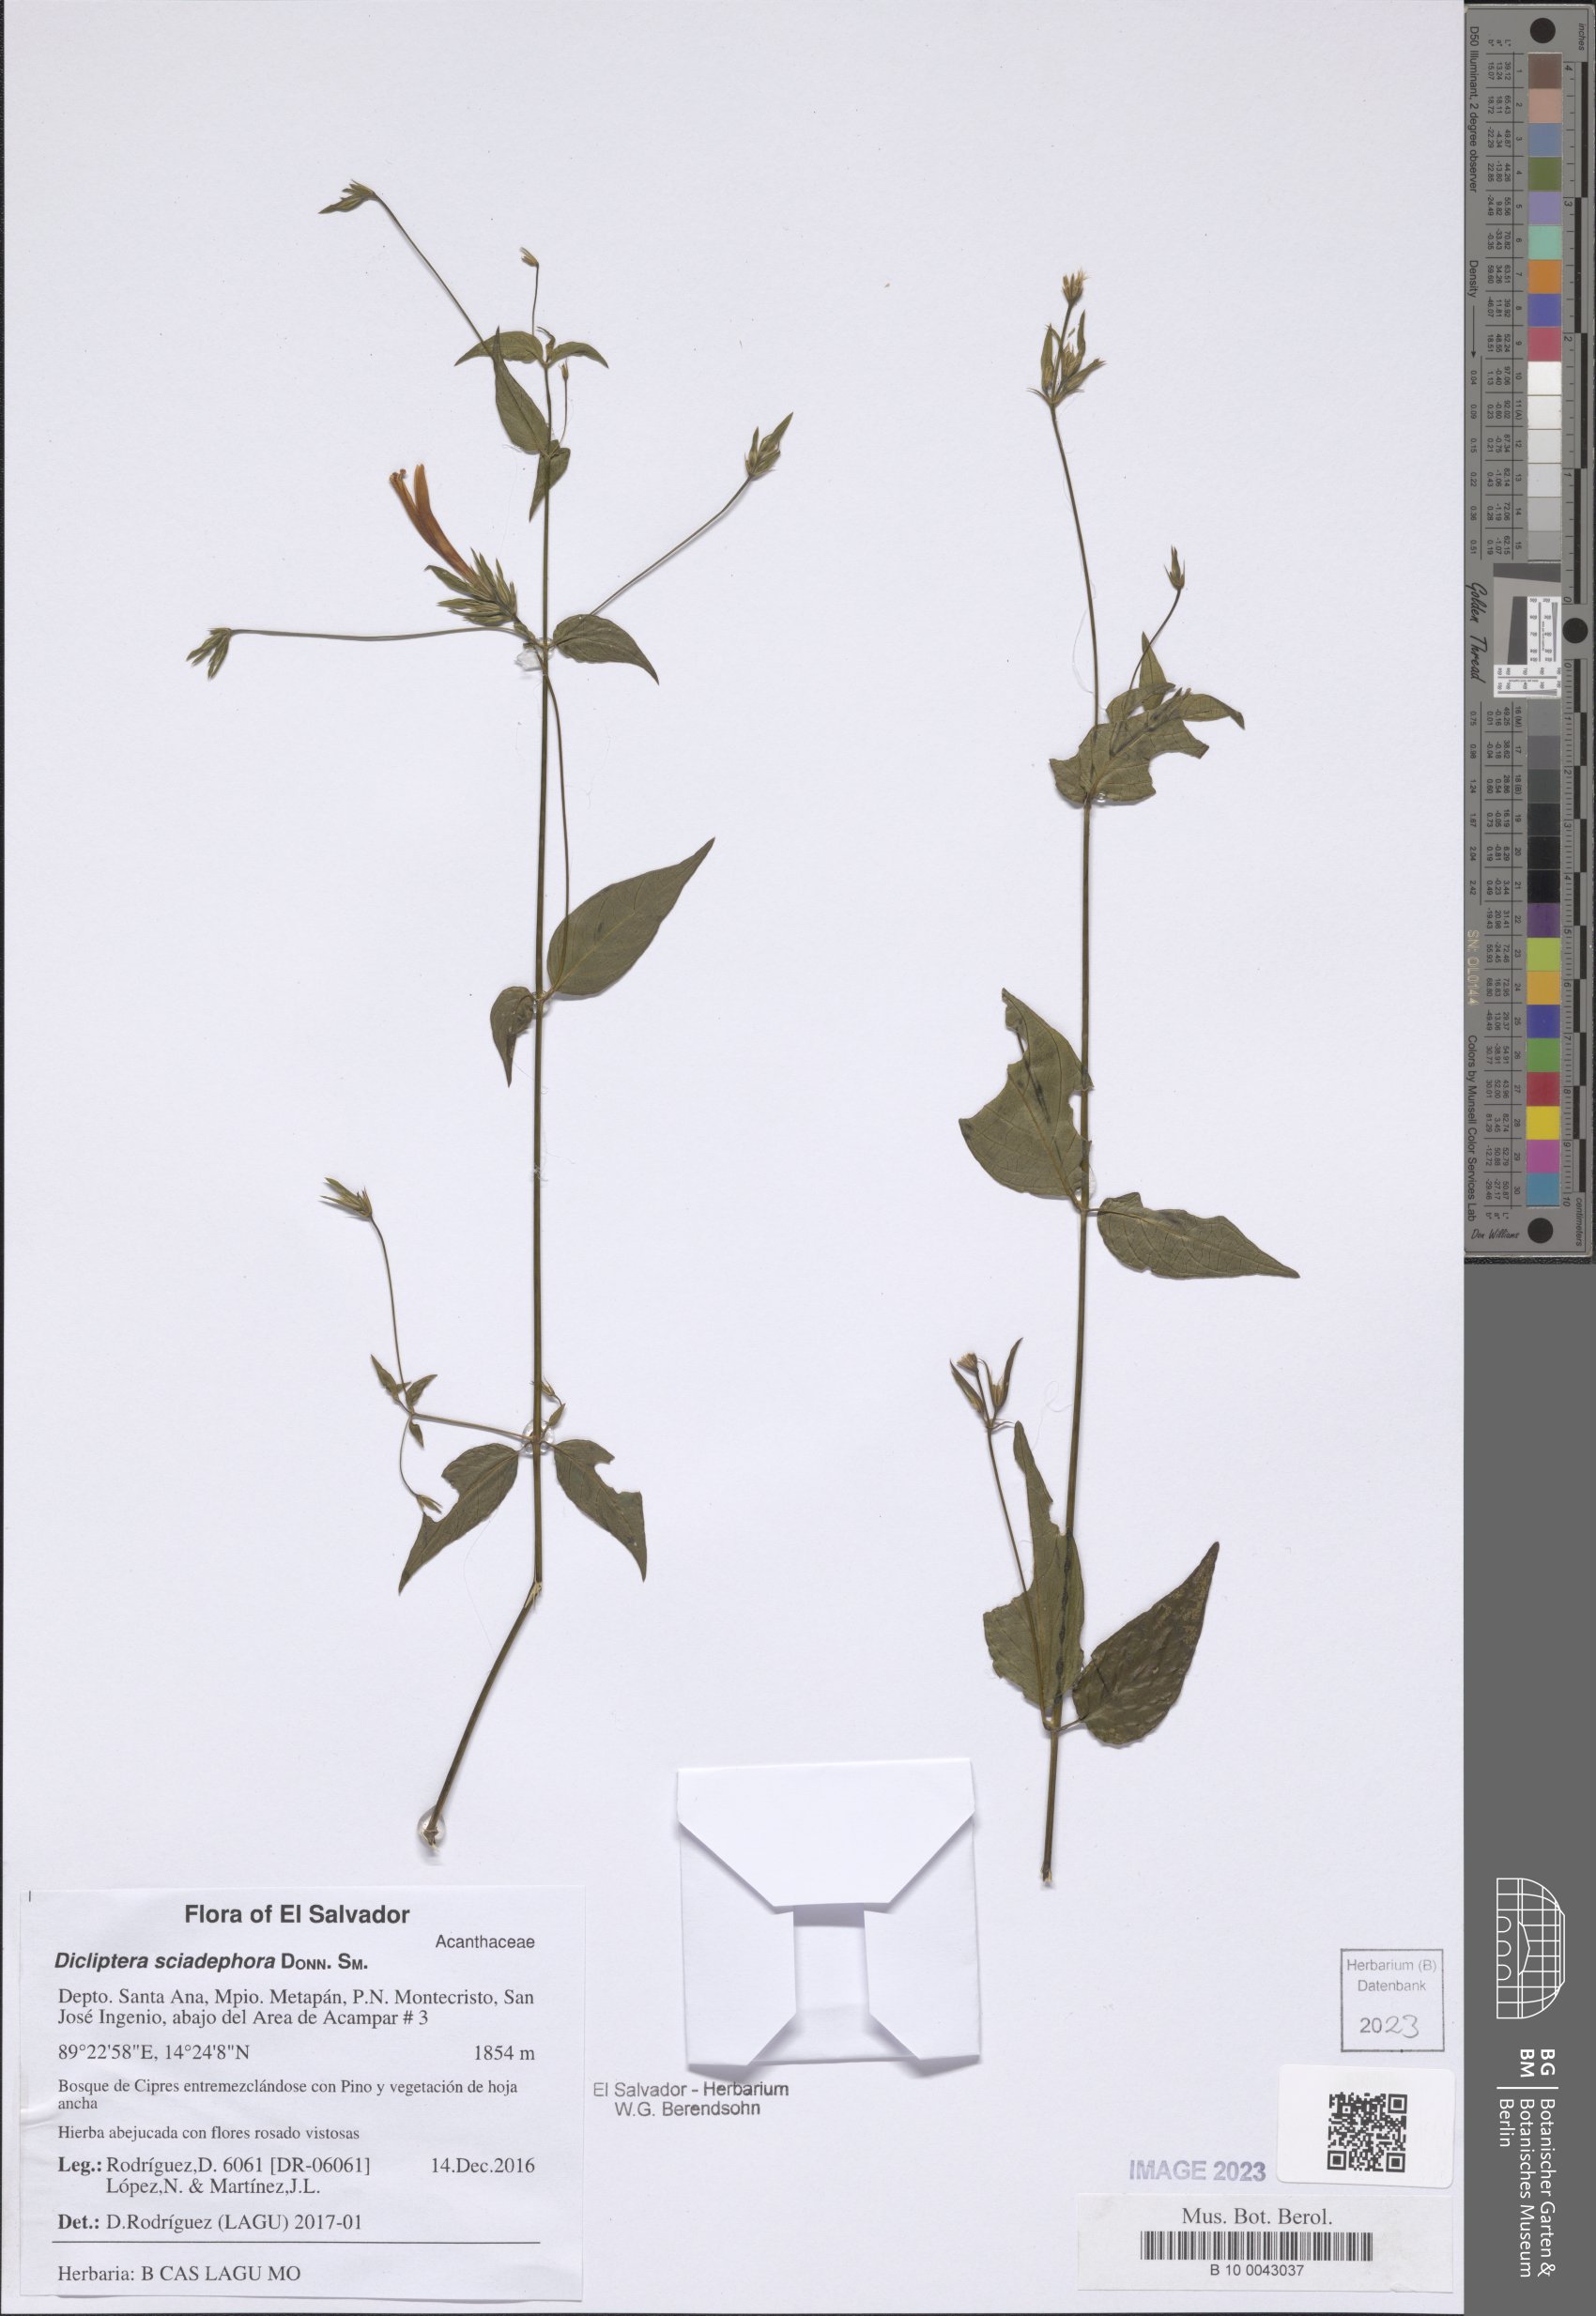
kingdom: Plantae
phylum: Tracheophyta
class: Magnoliopsida
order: Lamiales
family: Acanthaceae
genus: Dicliptera
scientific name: Dicliptera sciadephora
